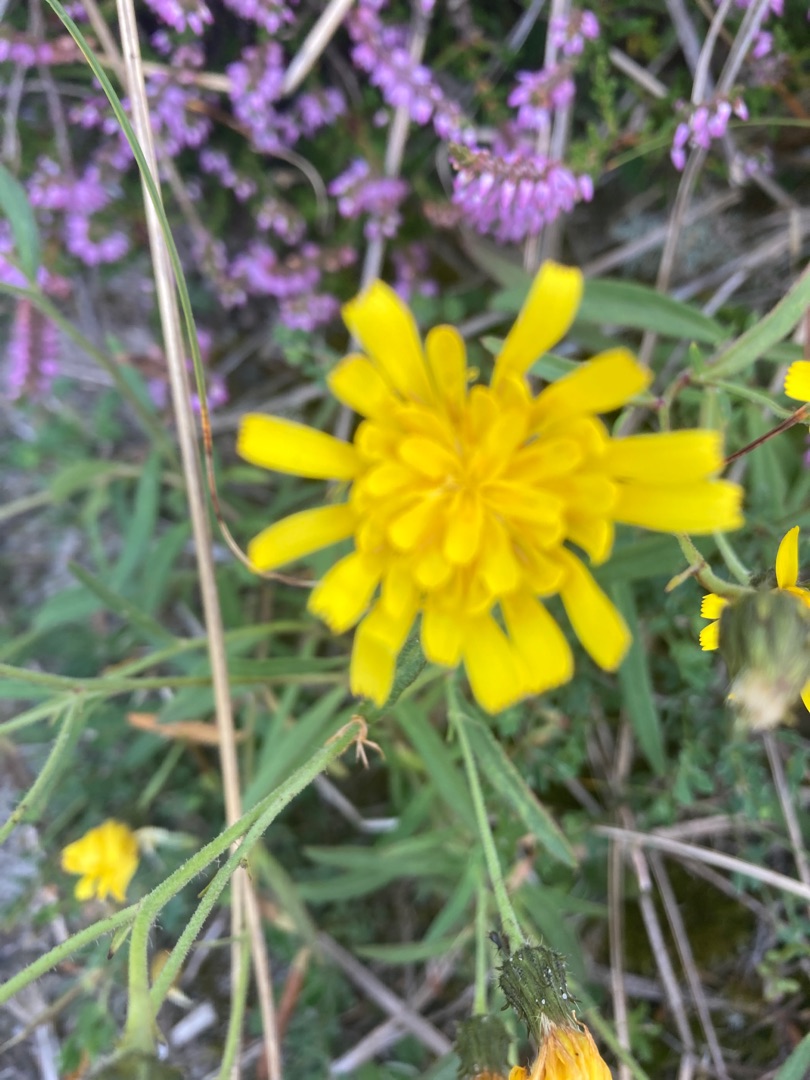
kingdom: Plantae
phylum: Tracheophyta
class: Magnoliopsida
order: Asterales
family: Asteraceae
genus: Hieracium
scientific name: Hieracium umbellatum
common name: Smalbladet høgeurt
